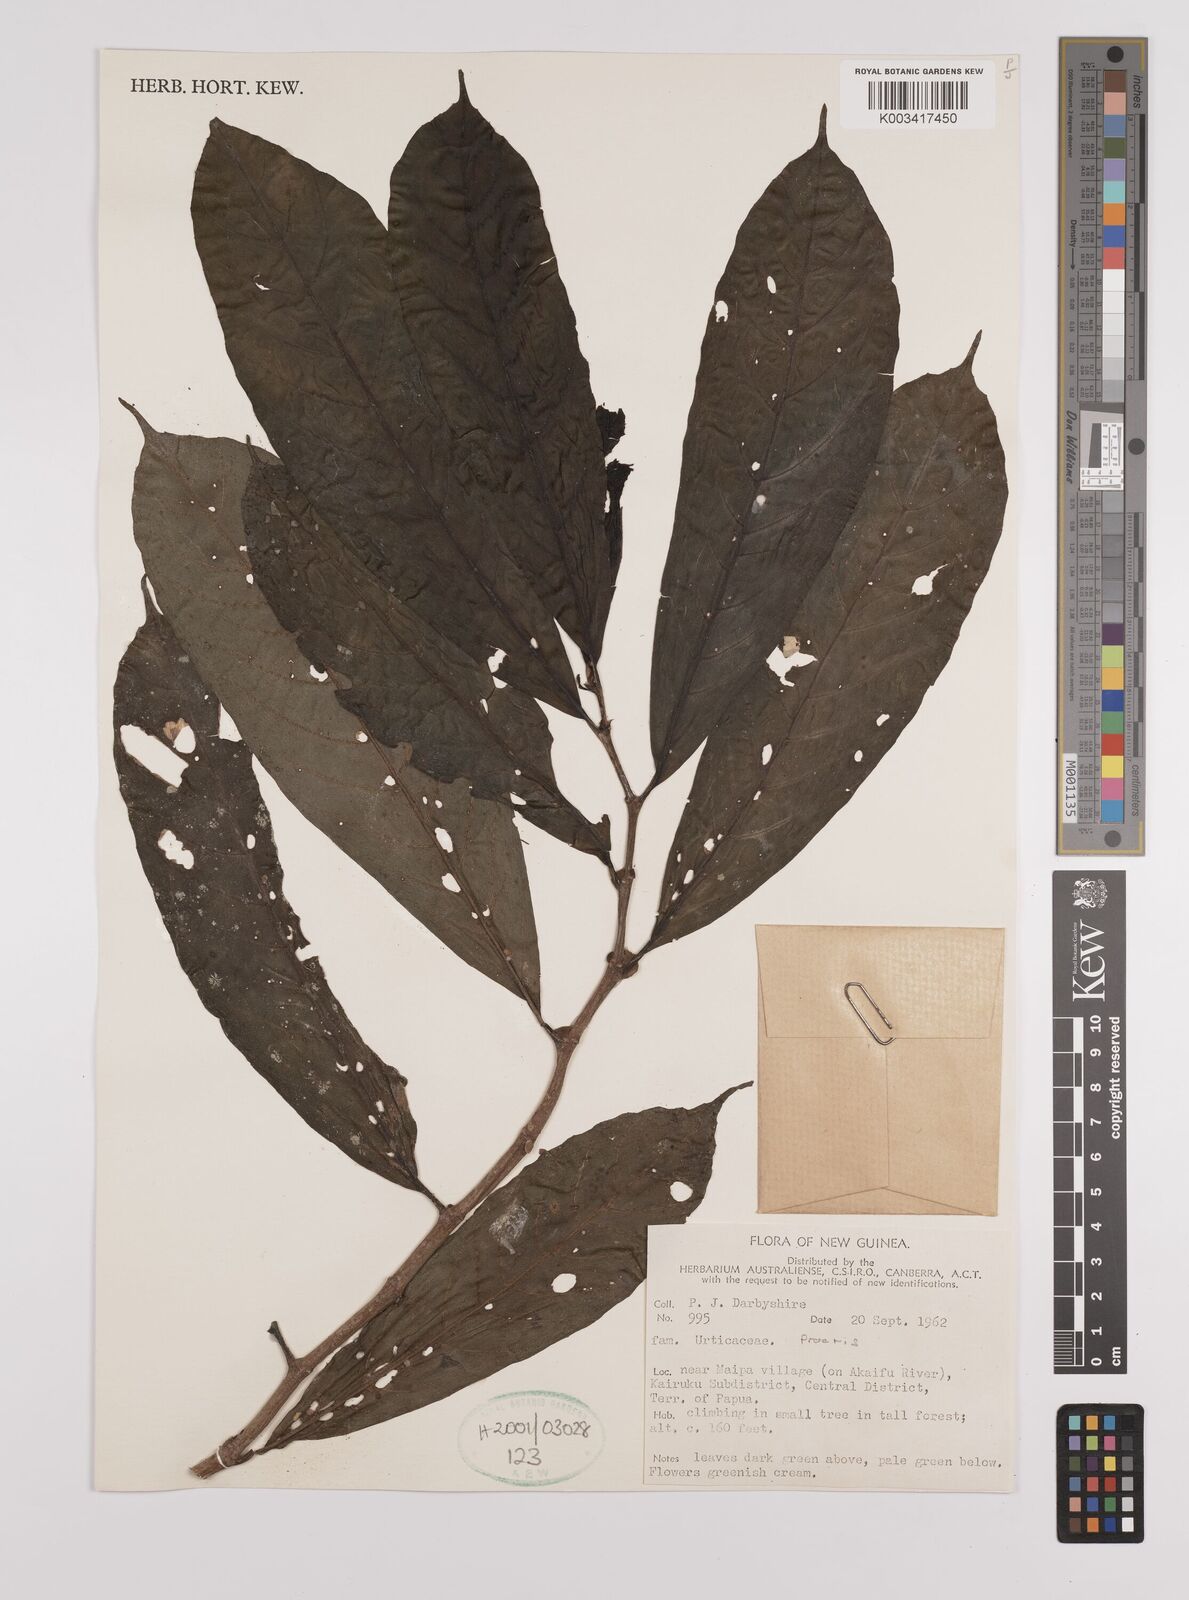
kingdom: Plantae
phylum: Tracheophyta
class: Magnoliopsida
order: Rosales
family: Urticaceae
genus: Procris
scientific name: Procris
